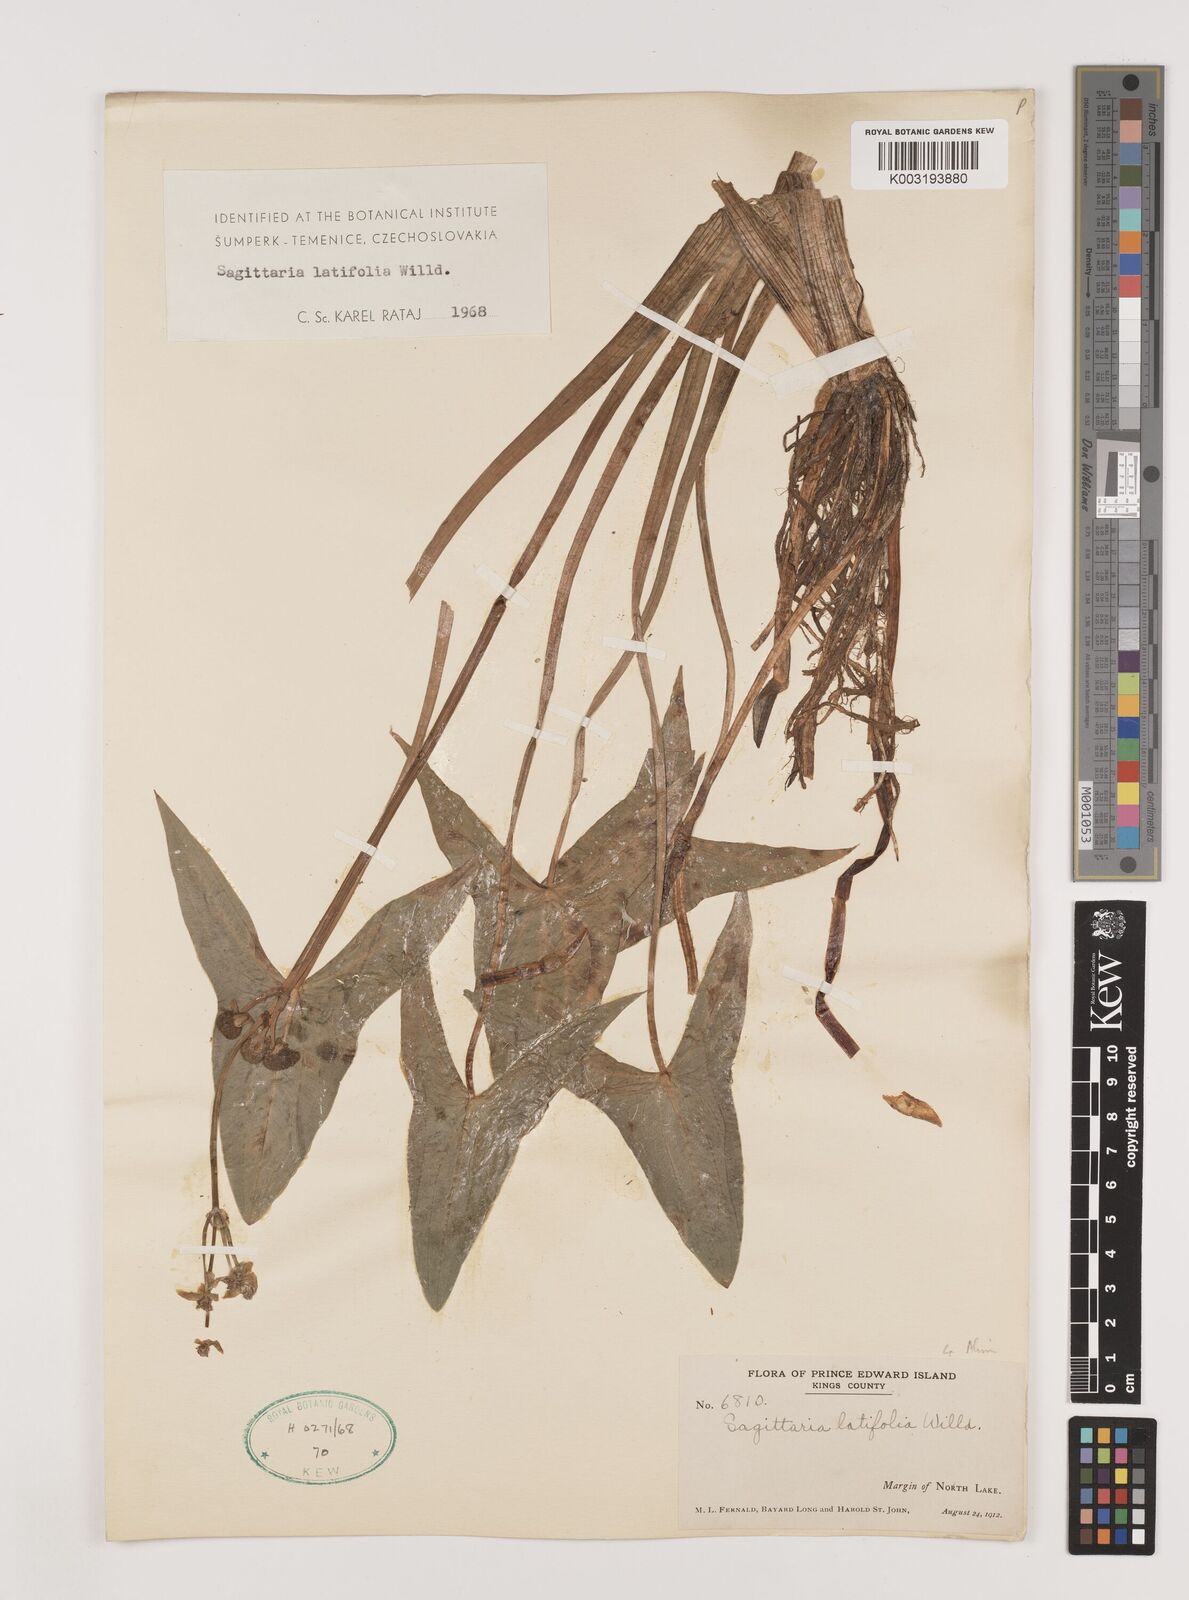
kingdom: Plantae
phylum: Tracheophyta
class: Liliopsida
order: Alismatales
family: Alismataceae
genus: Sagittaria
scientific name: Sagittaria latifolia
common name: Duck-potato
